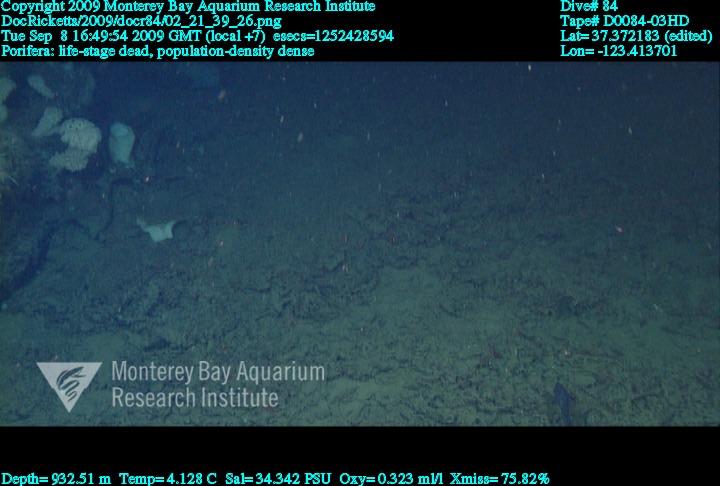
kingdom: Animalia
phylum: Porifera
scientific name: Porifera
